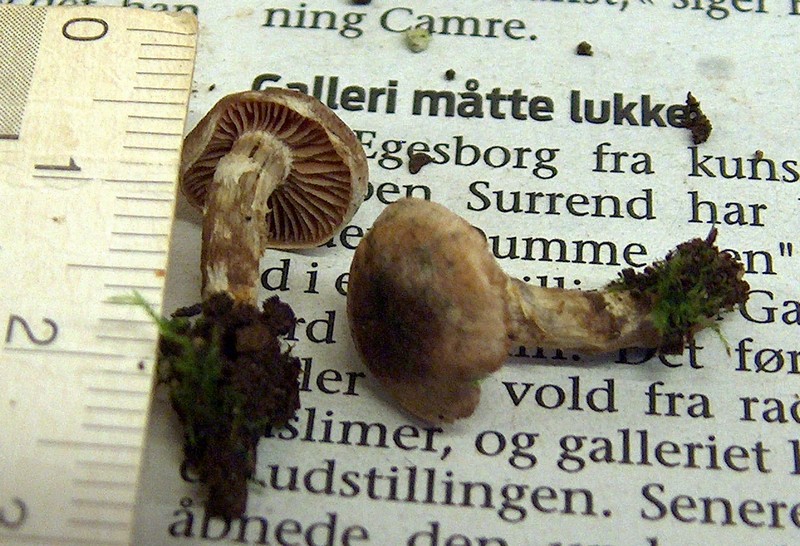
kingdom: Fungi
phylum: Basidiomycota
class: Agaricomycetes
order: Agaricales
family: Hymenogastraceae
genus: Hebeloma
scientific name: Hebeloma mesophaeum
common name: lerbrun tåreblad
